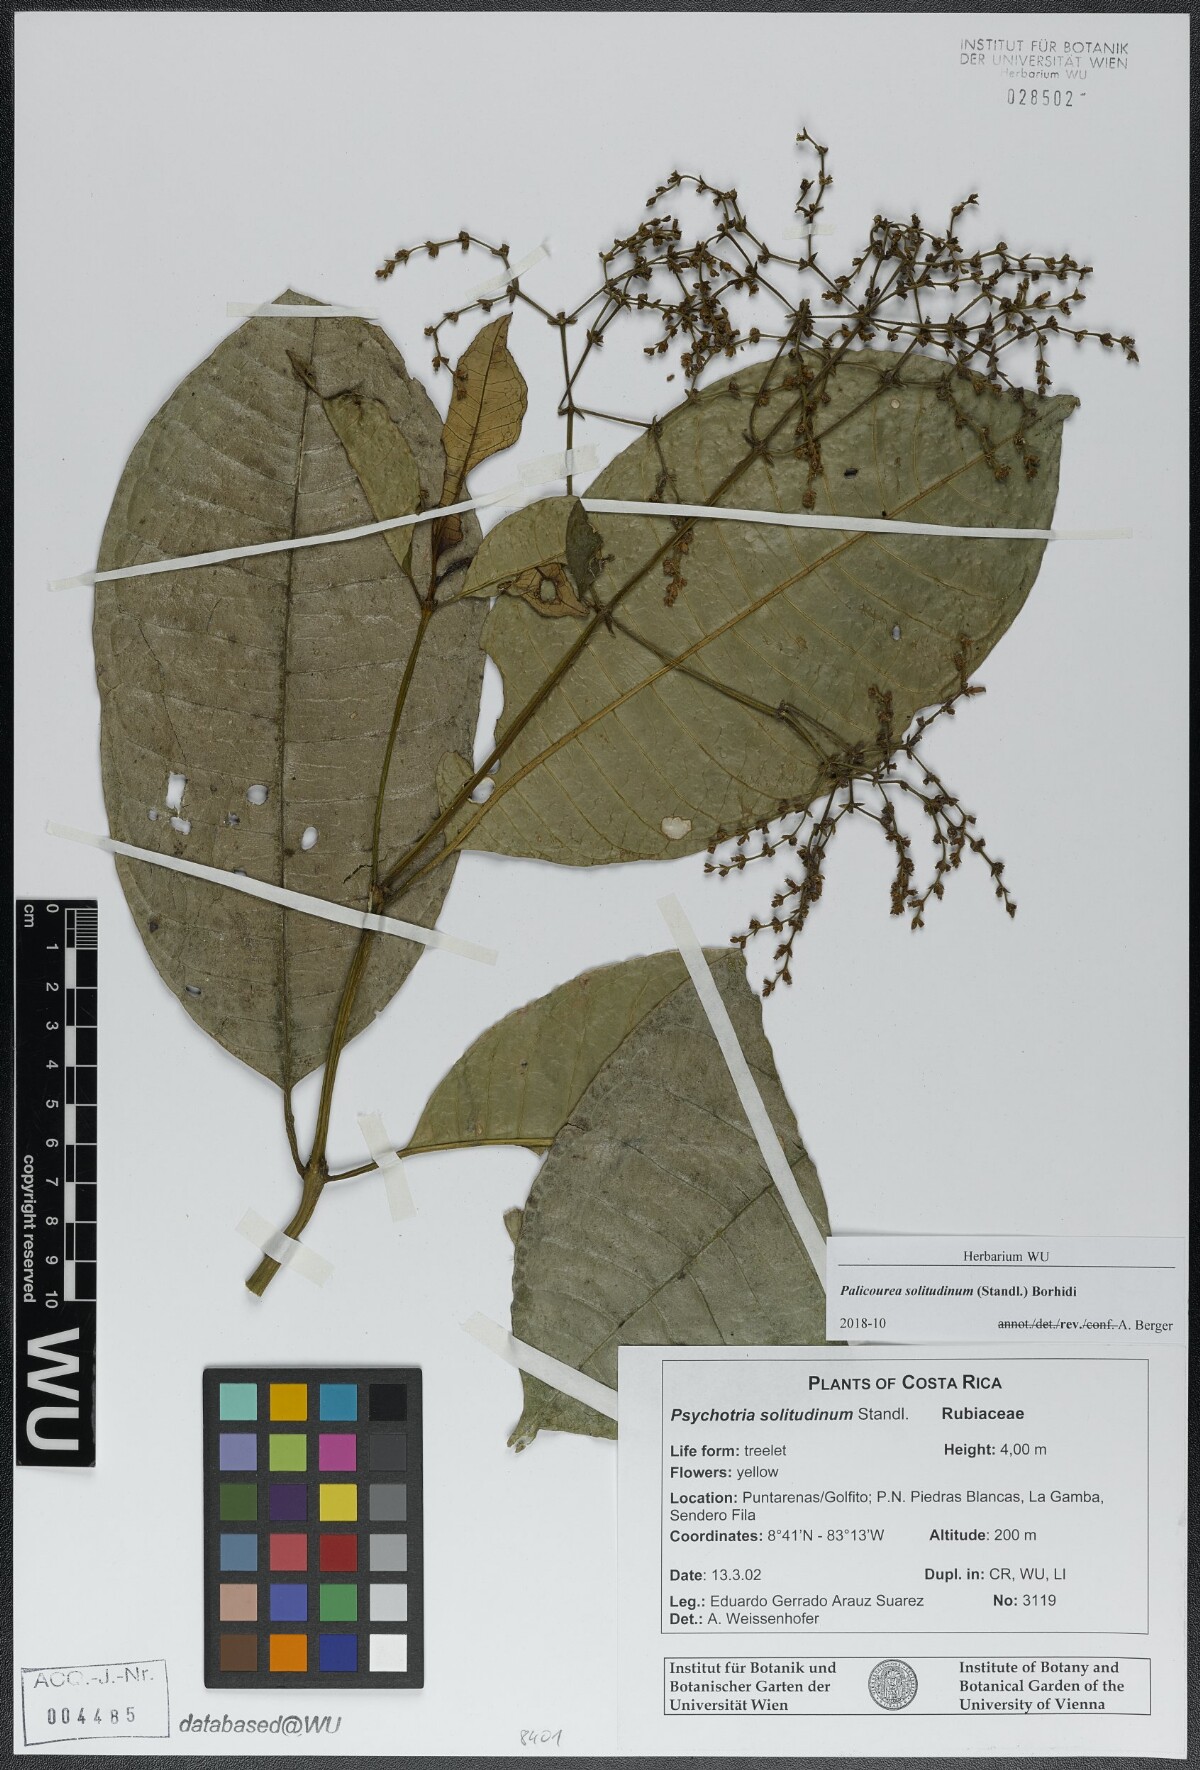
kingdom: Plantae
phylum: Tracheophyta
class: Magnoliopsida
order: Gentianales
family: Rubiaceae
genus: Palicourea
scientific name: Palicourea solitudinum
